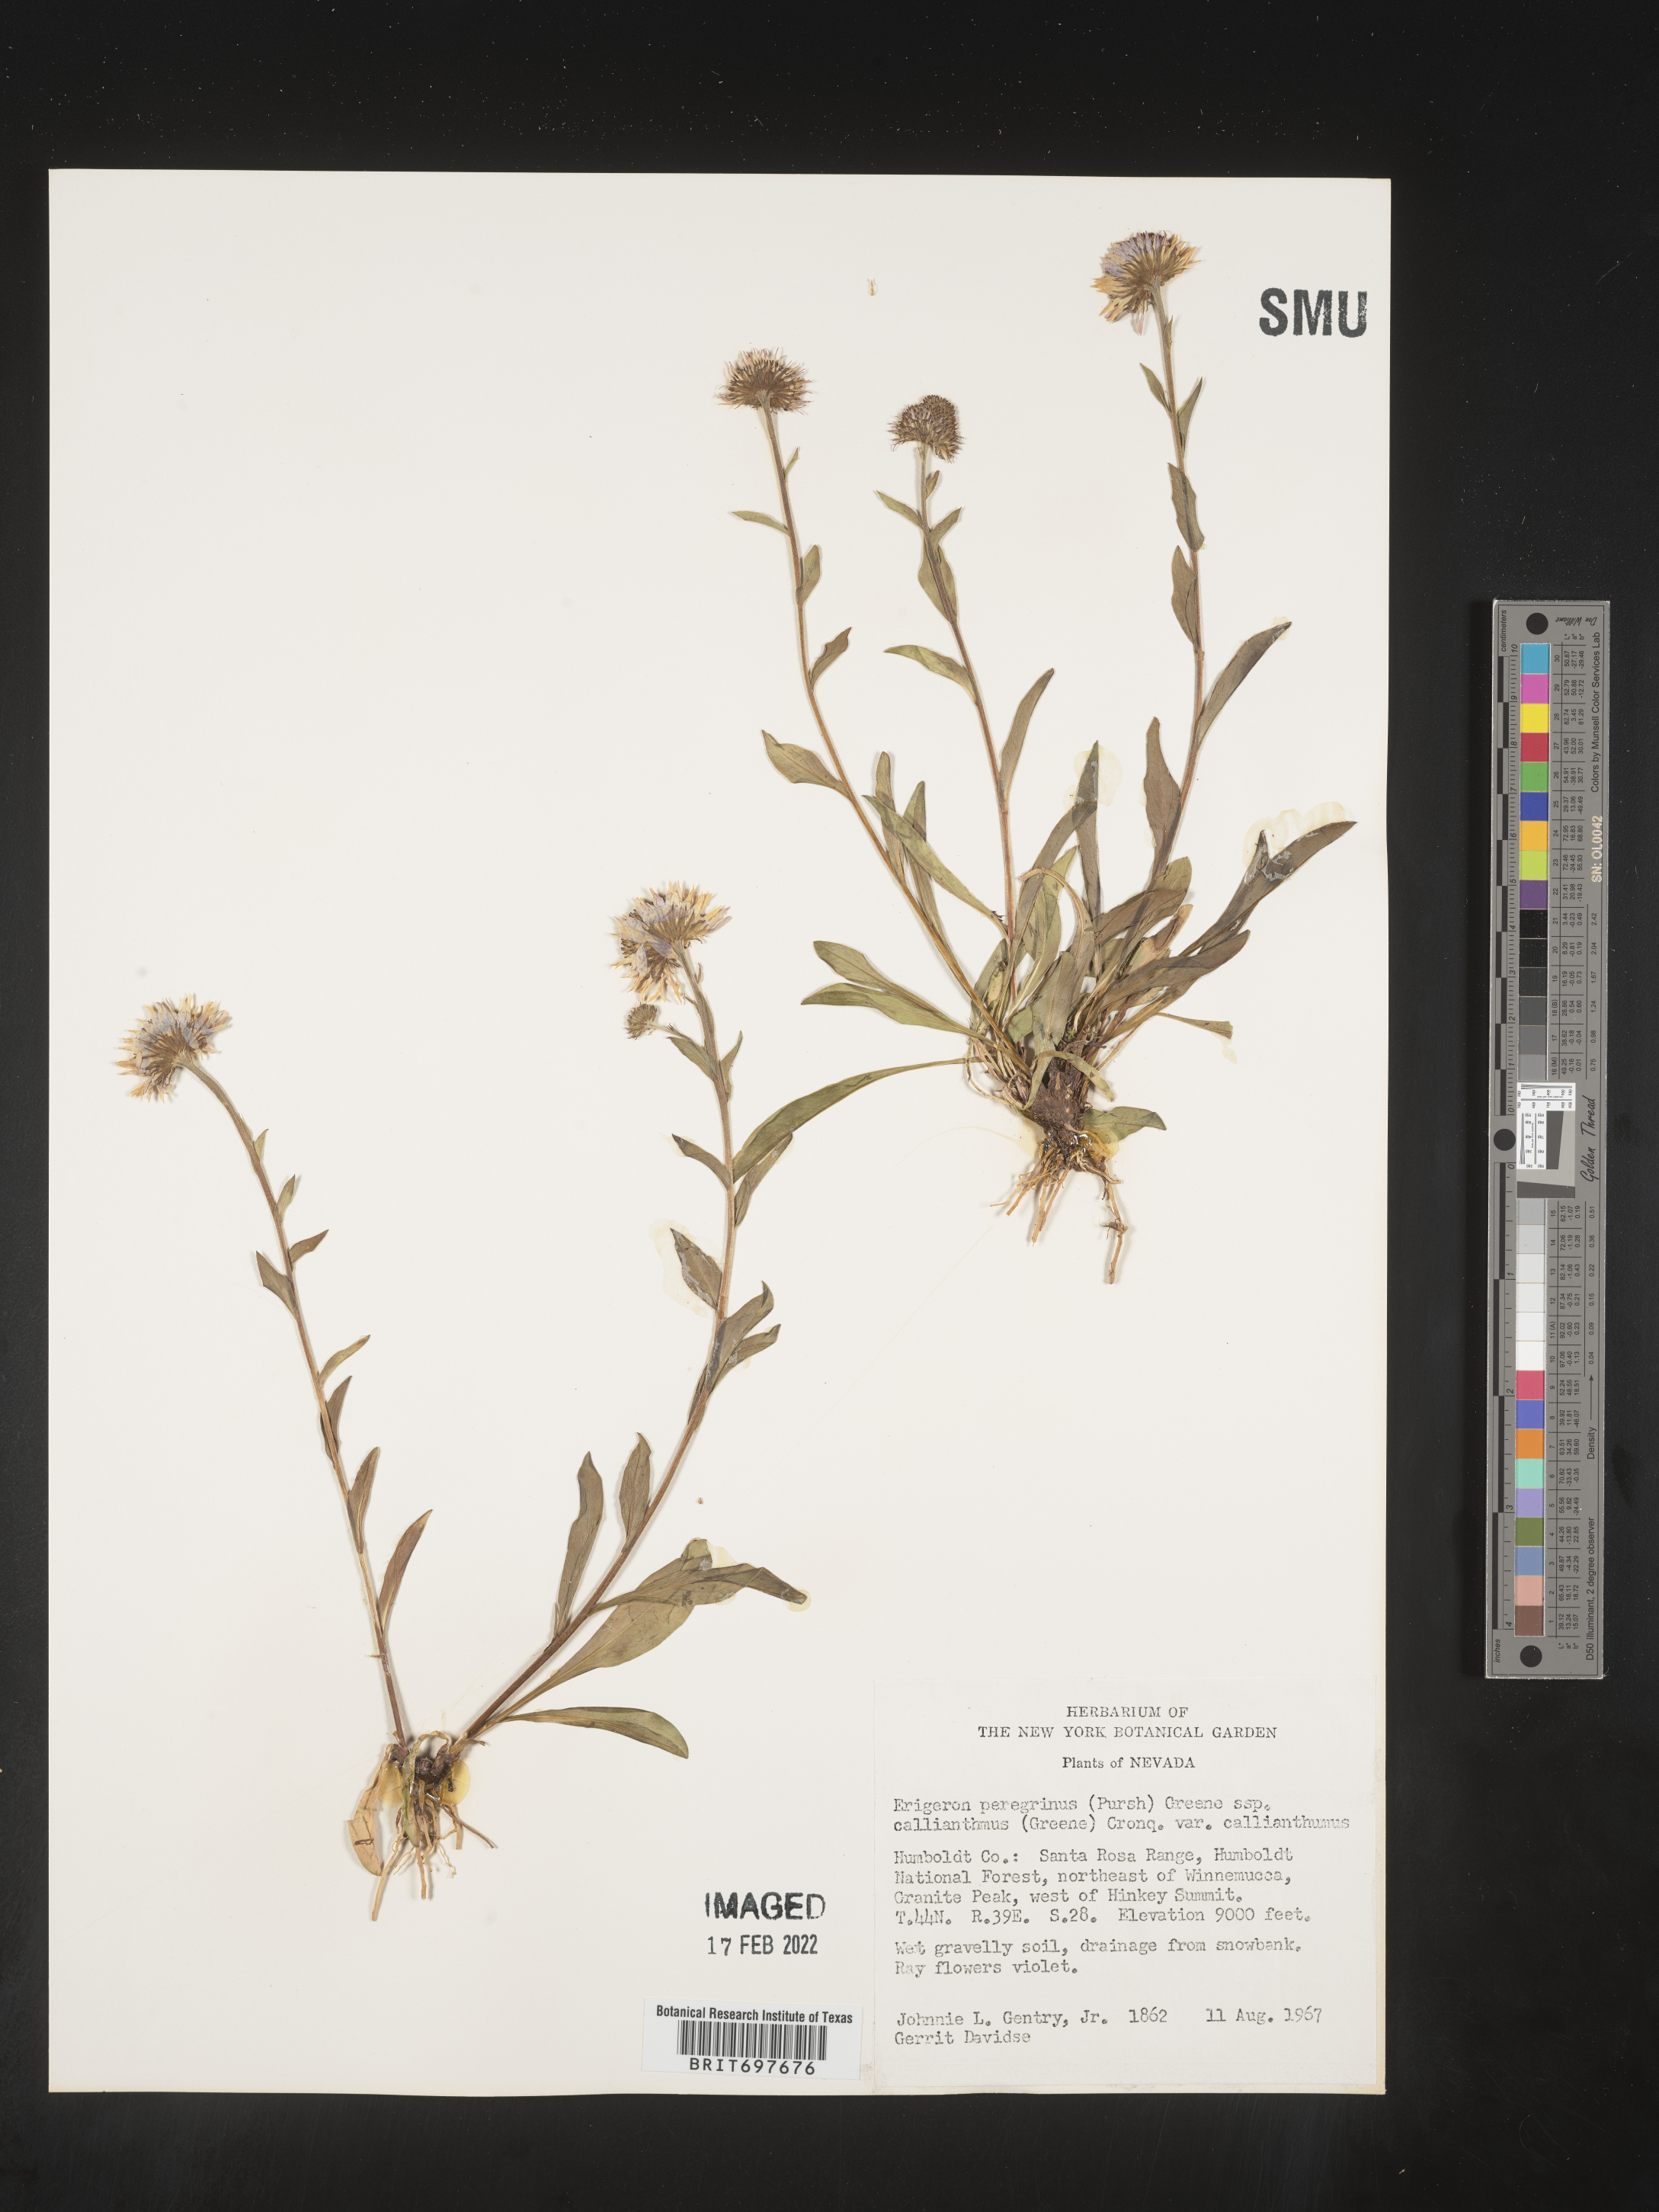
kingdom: Plantae
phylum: Tracheophyta
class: Magnoliopsida
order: Asterales
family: Asteraceae
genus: Erigeron
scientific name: Erigeron glacialis
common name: Subalpine fleabane
